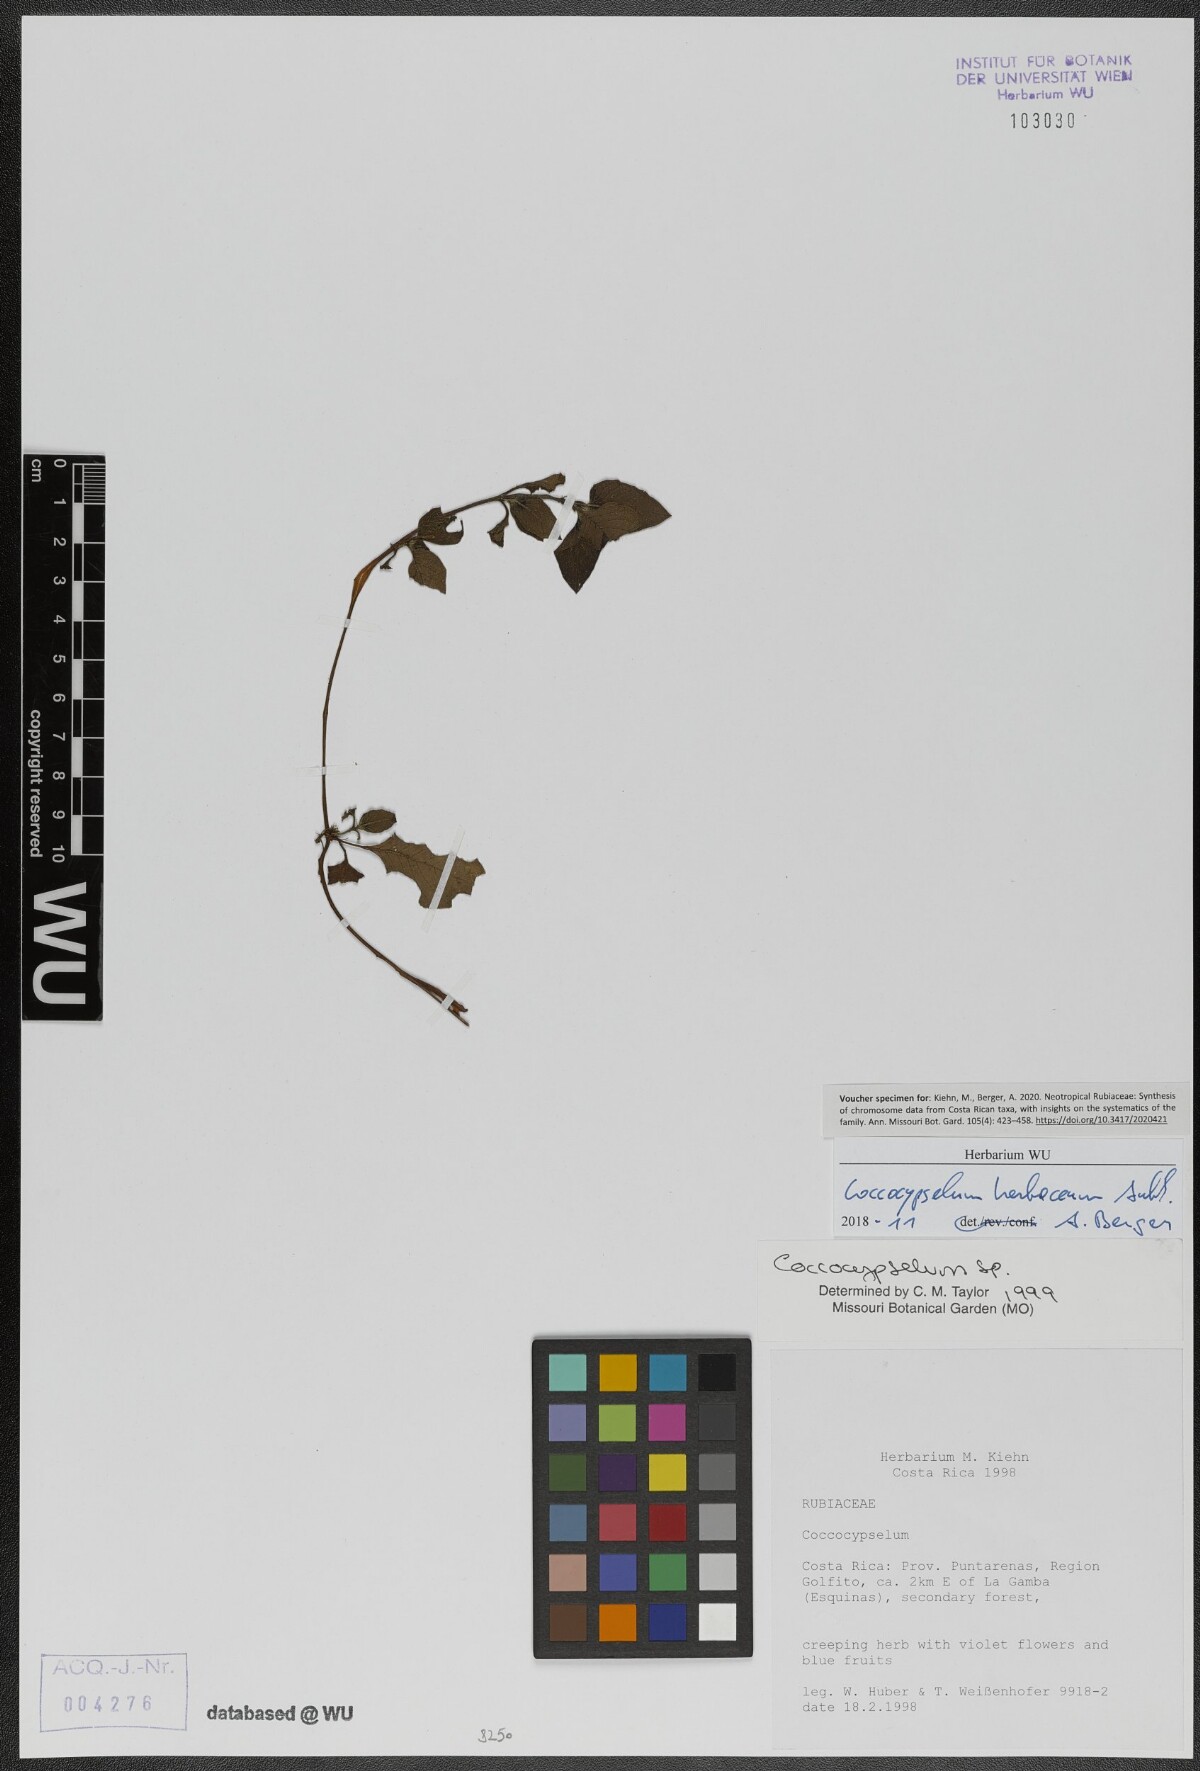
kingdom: Plantae
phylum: Tracheophyta
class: Magnoliopsida
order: Gentianales
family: Rubiaceae
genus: Coccocypselum
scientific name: Coccocypselum herbaceum
